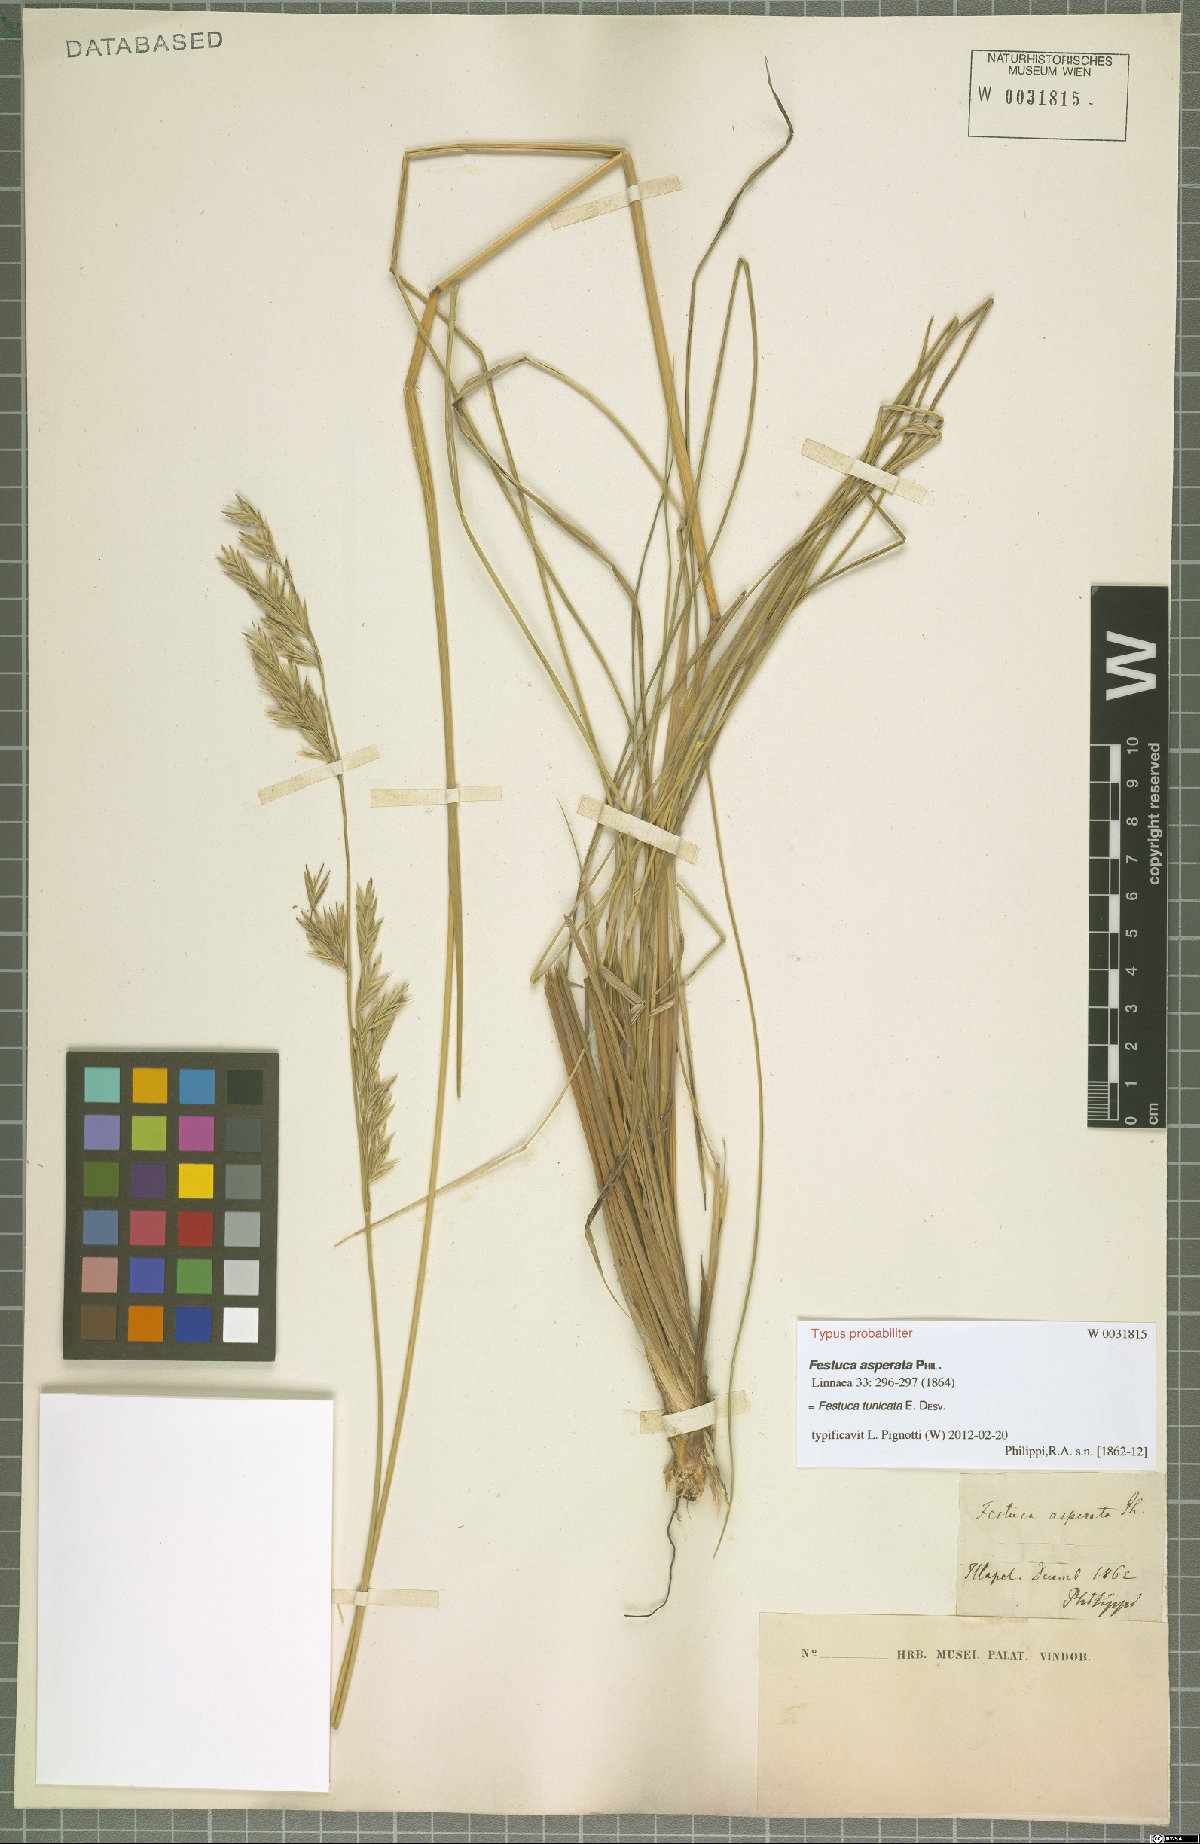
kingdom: Plantae
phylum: Tracheophyta
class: Liliopsida
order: Poales
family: Poaceae
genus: Festuca
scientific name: Festuca acanthophylla
